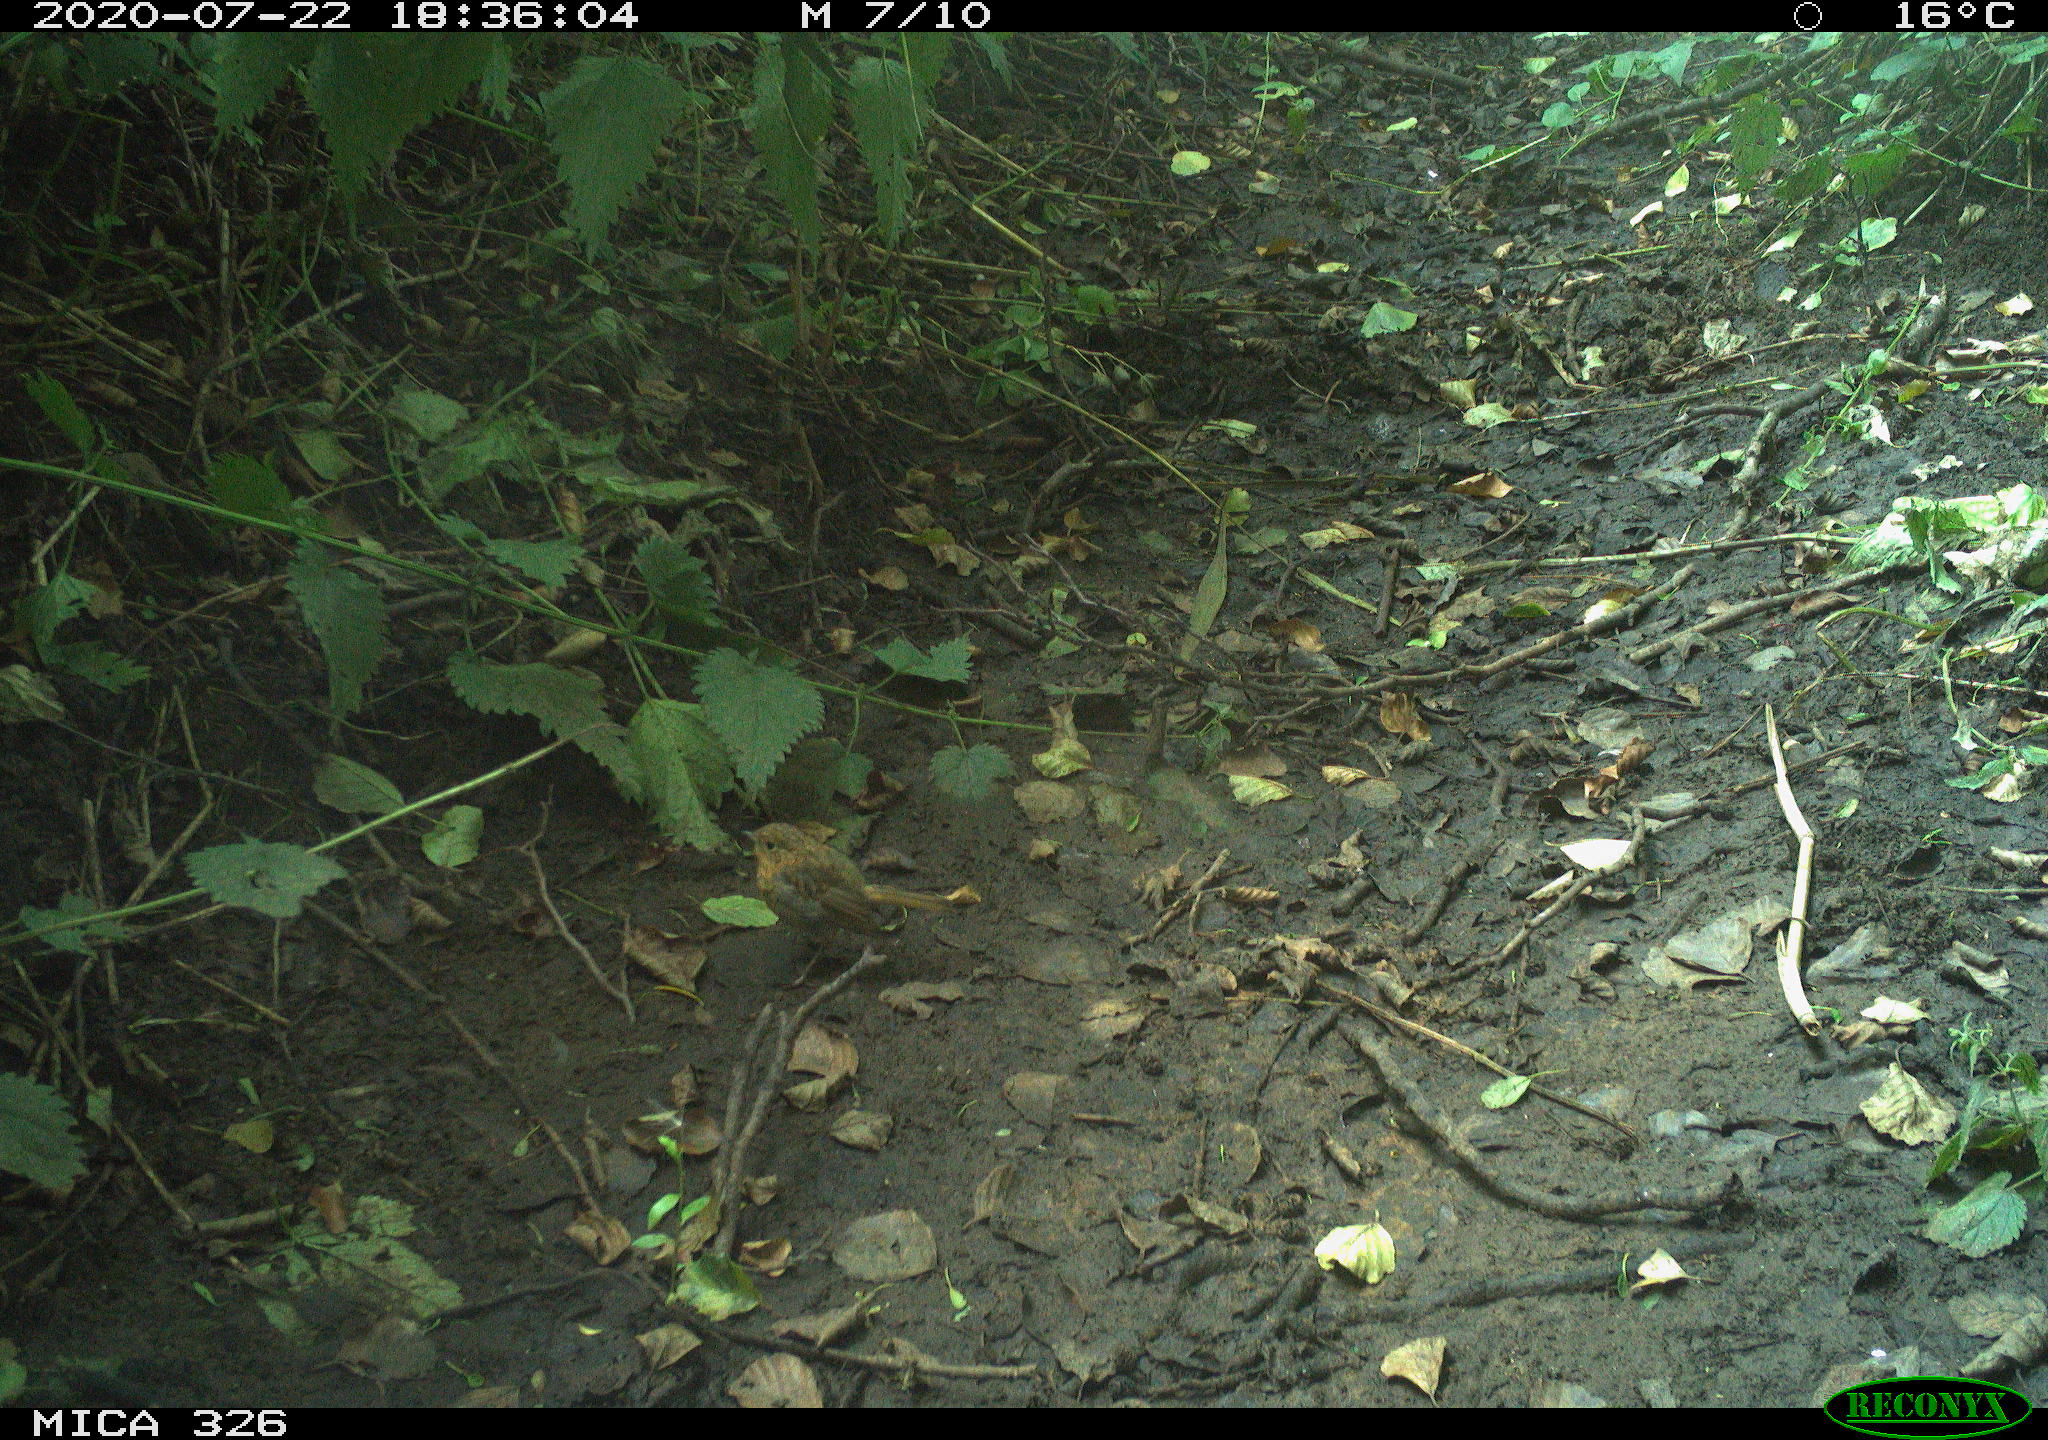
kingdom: Animalia
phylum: Chordata
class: Aves
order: Passeriformes
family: Muscicapidae
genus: Erithacus
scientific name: Erithacus rubecula
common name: European robin
